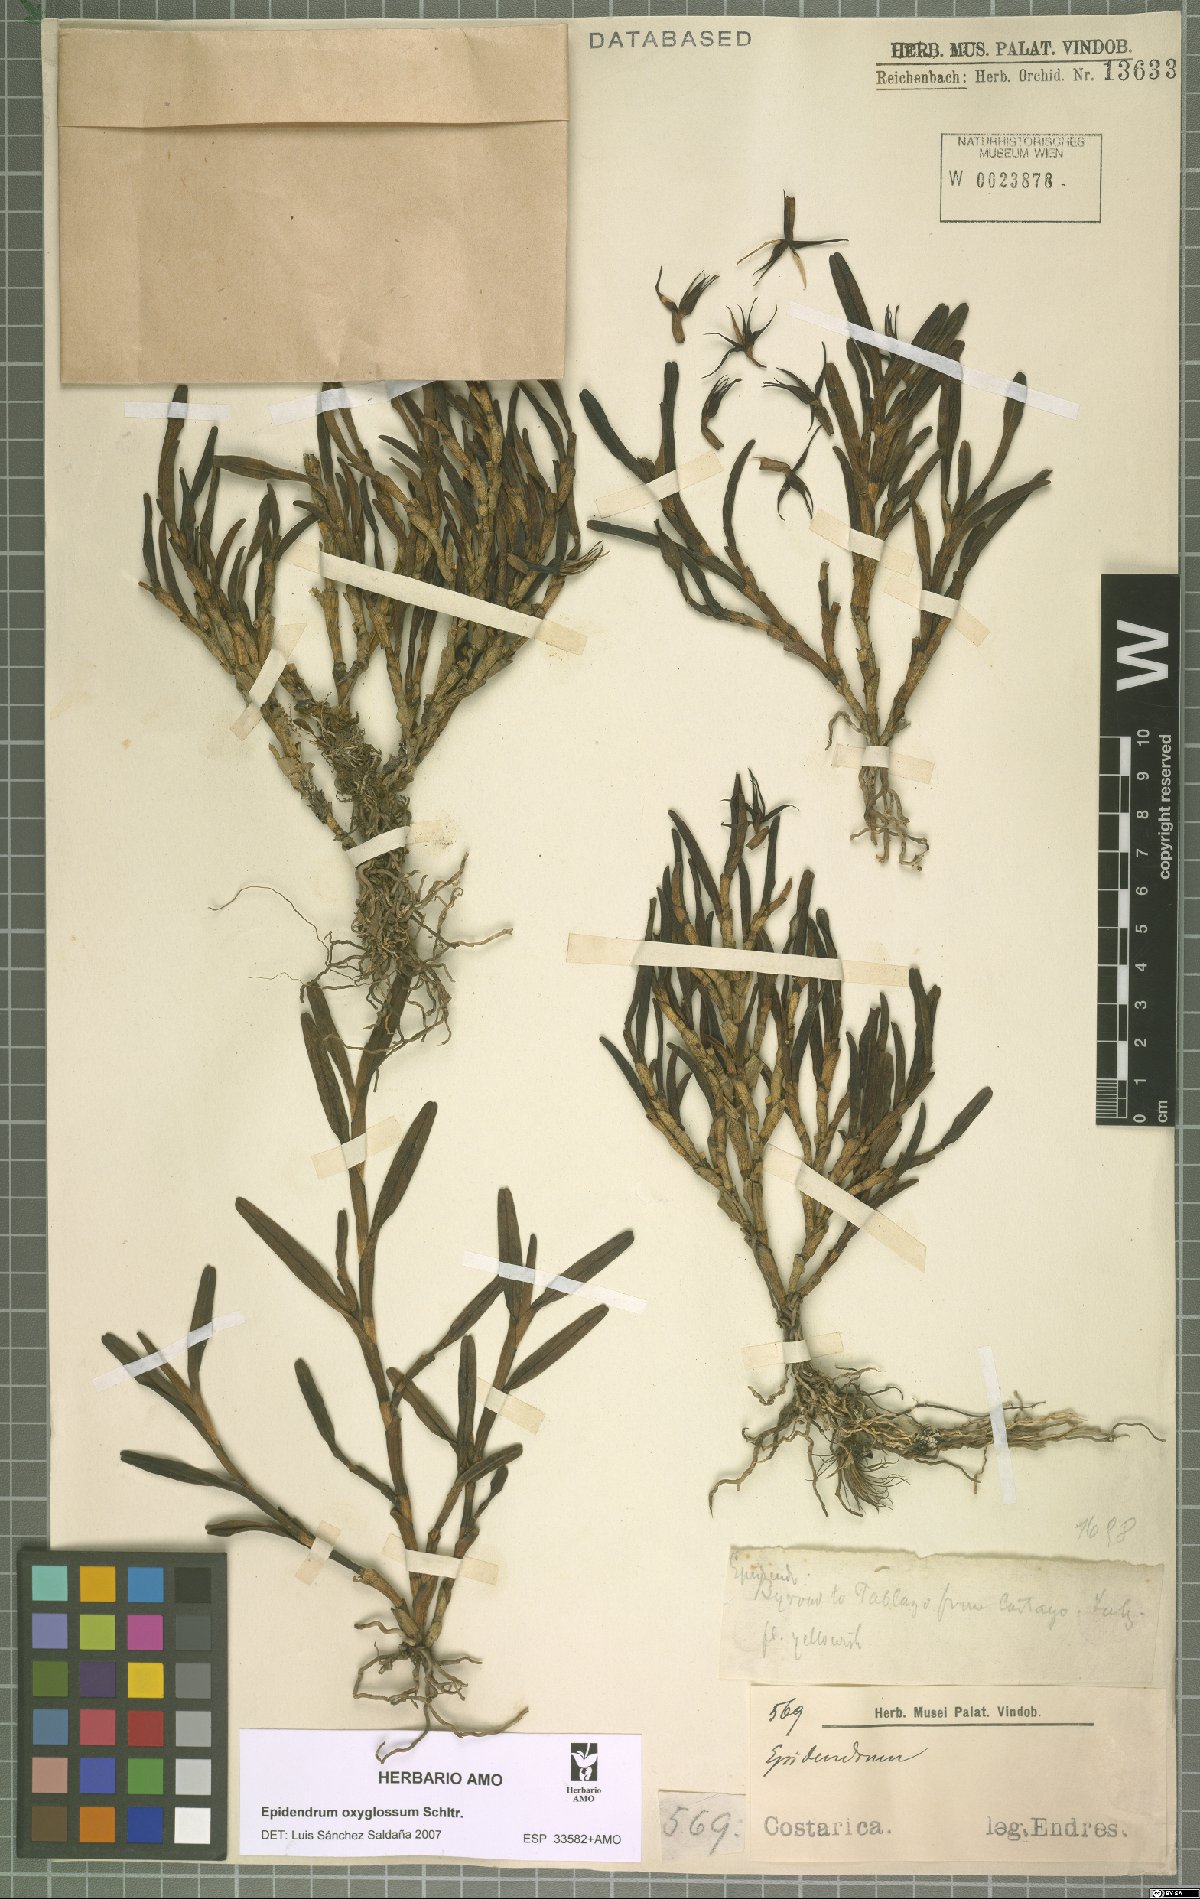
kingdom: Plantae
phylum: Tracheophyta
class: Liliopsida
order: Asparagales
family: Orchidaceae
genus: Epidendrum
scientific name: Epidendrum oxyglossum
